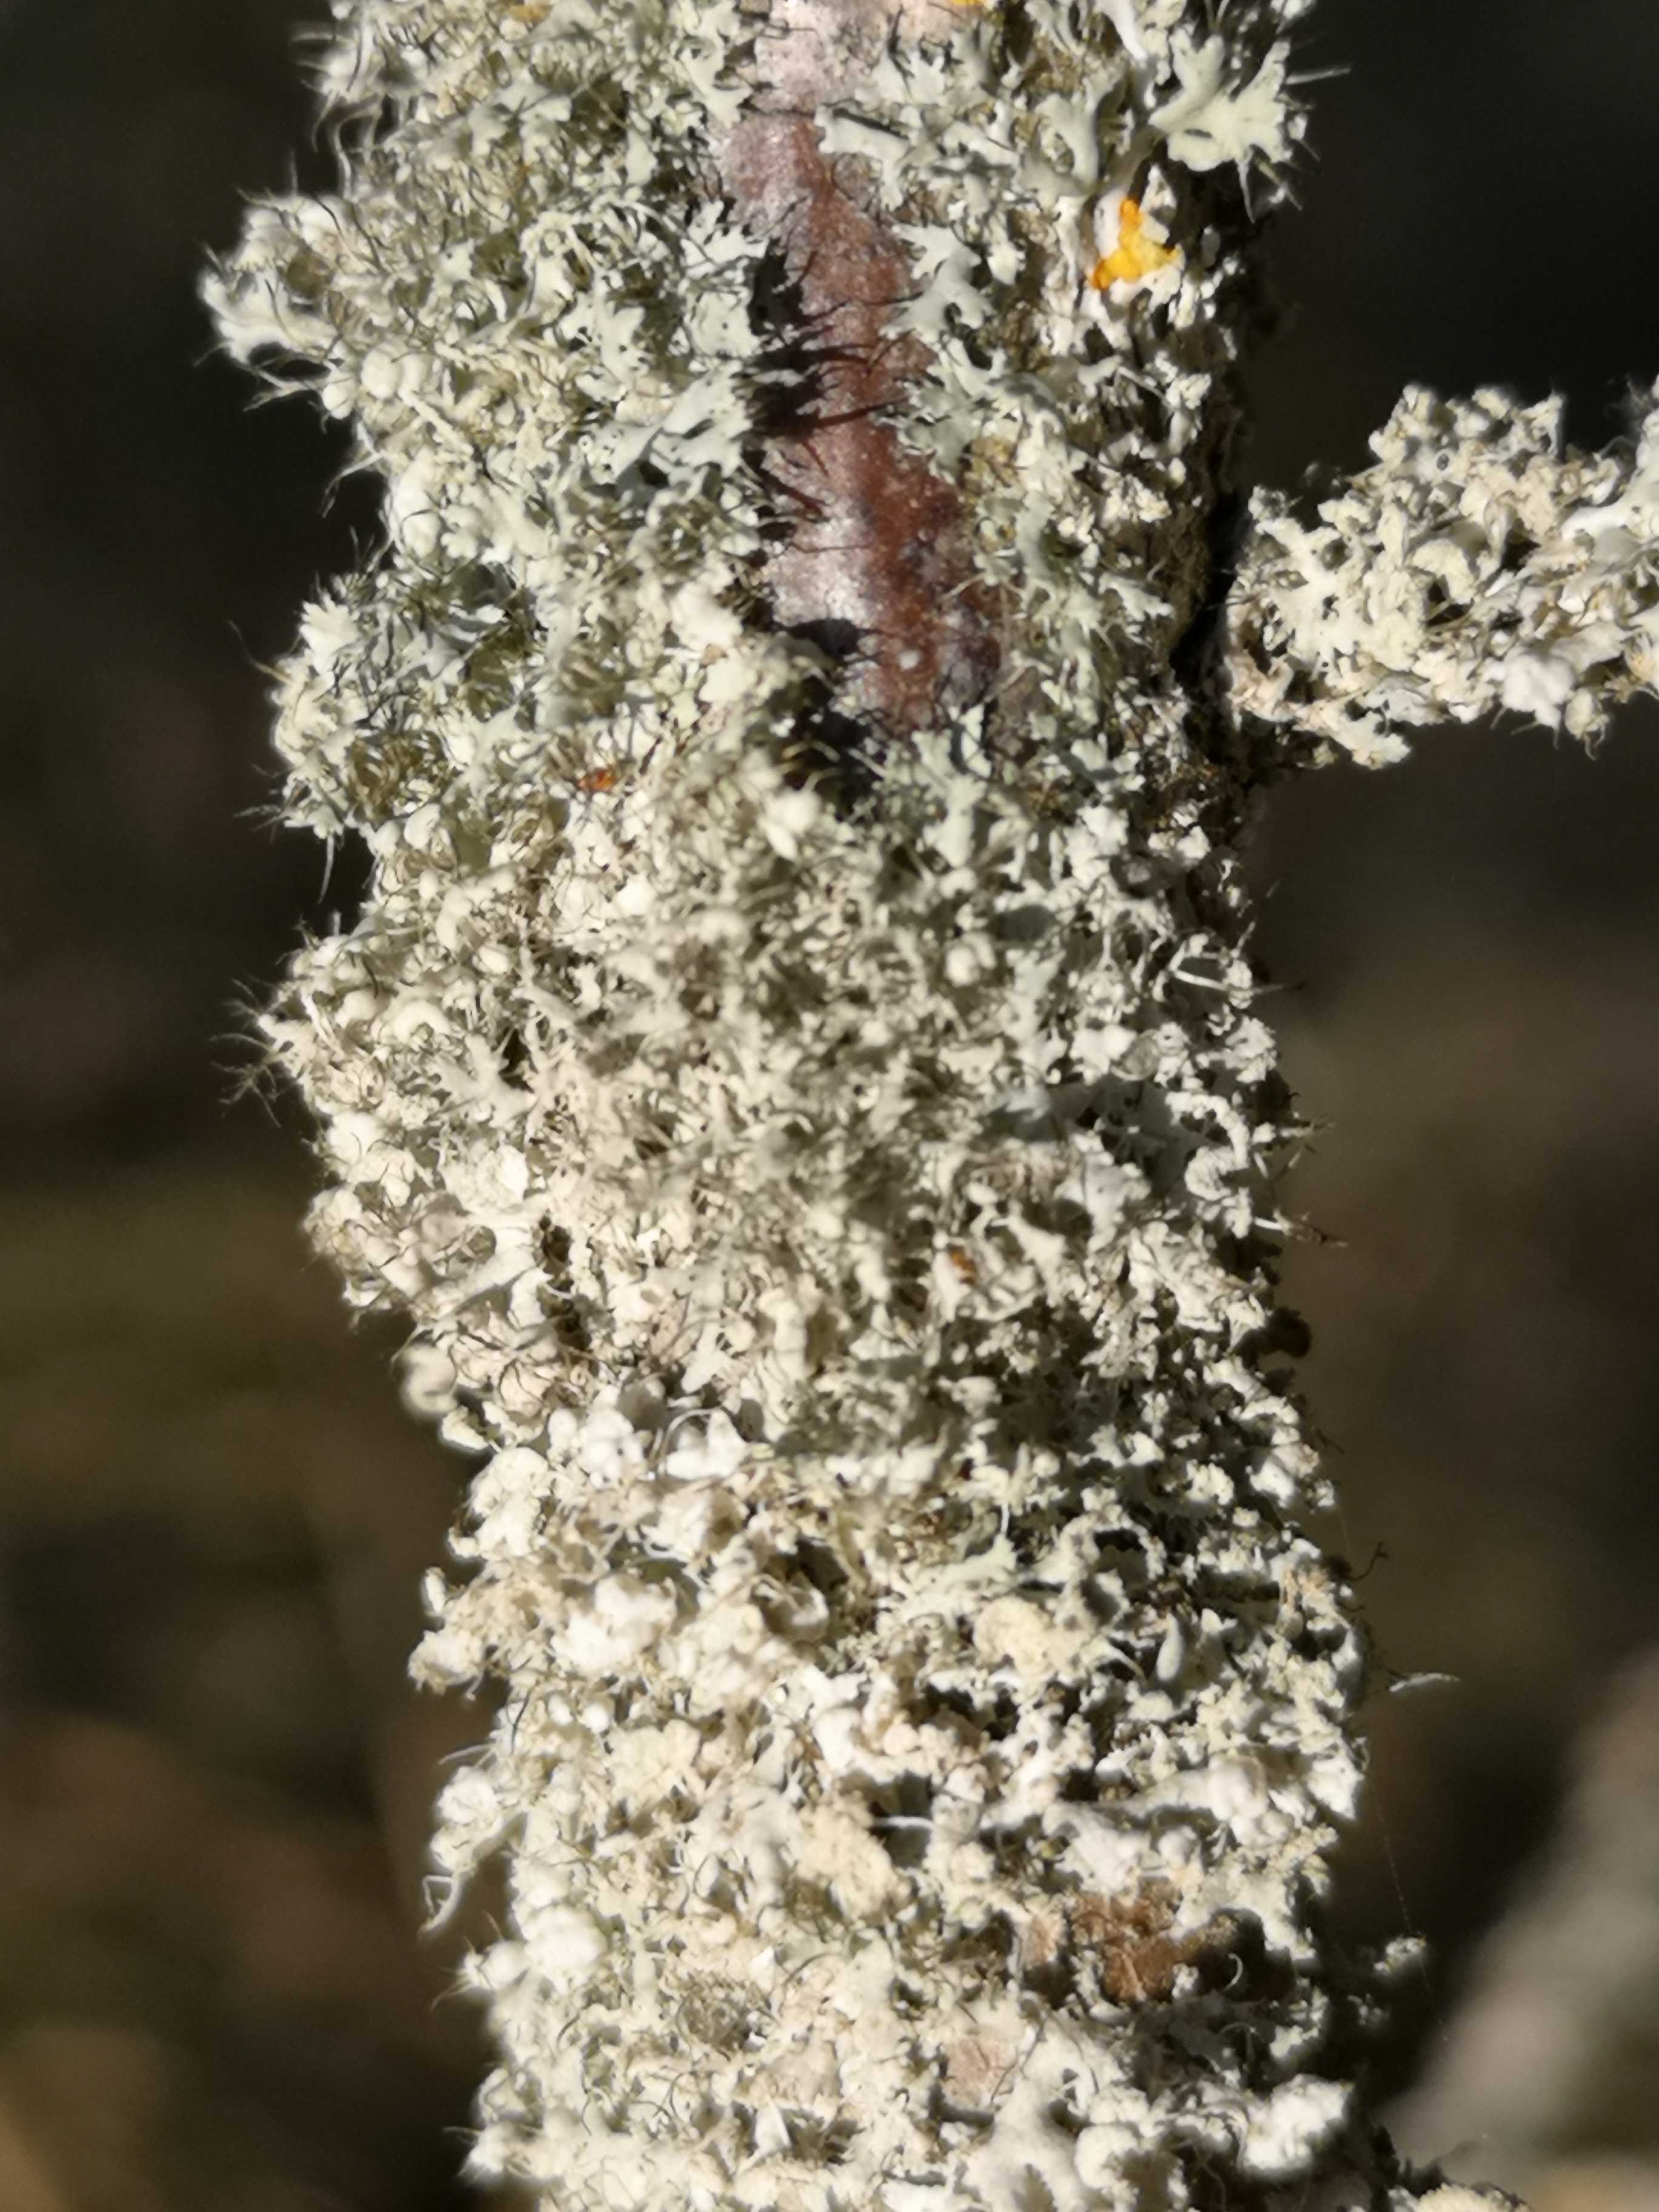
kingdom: Fungi
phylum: Ascomycota
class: Lecanoromycetes
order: Caliciales
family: Physciaceae
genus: Physcia
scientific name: Physcia tenella
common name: spæd rosetlav
